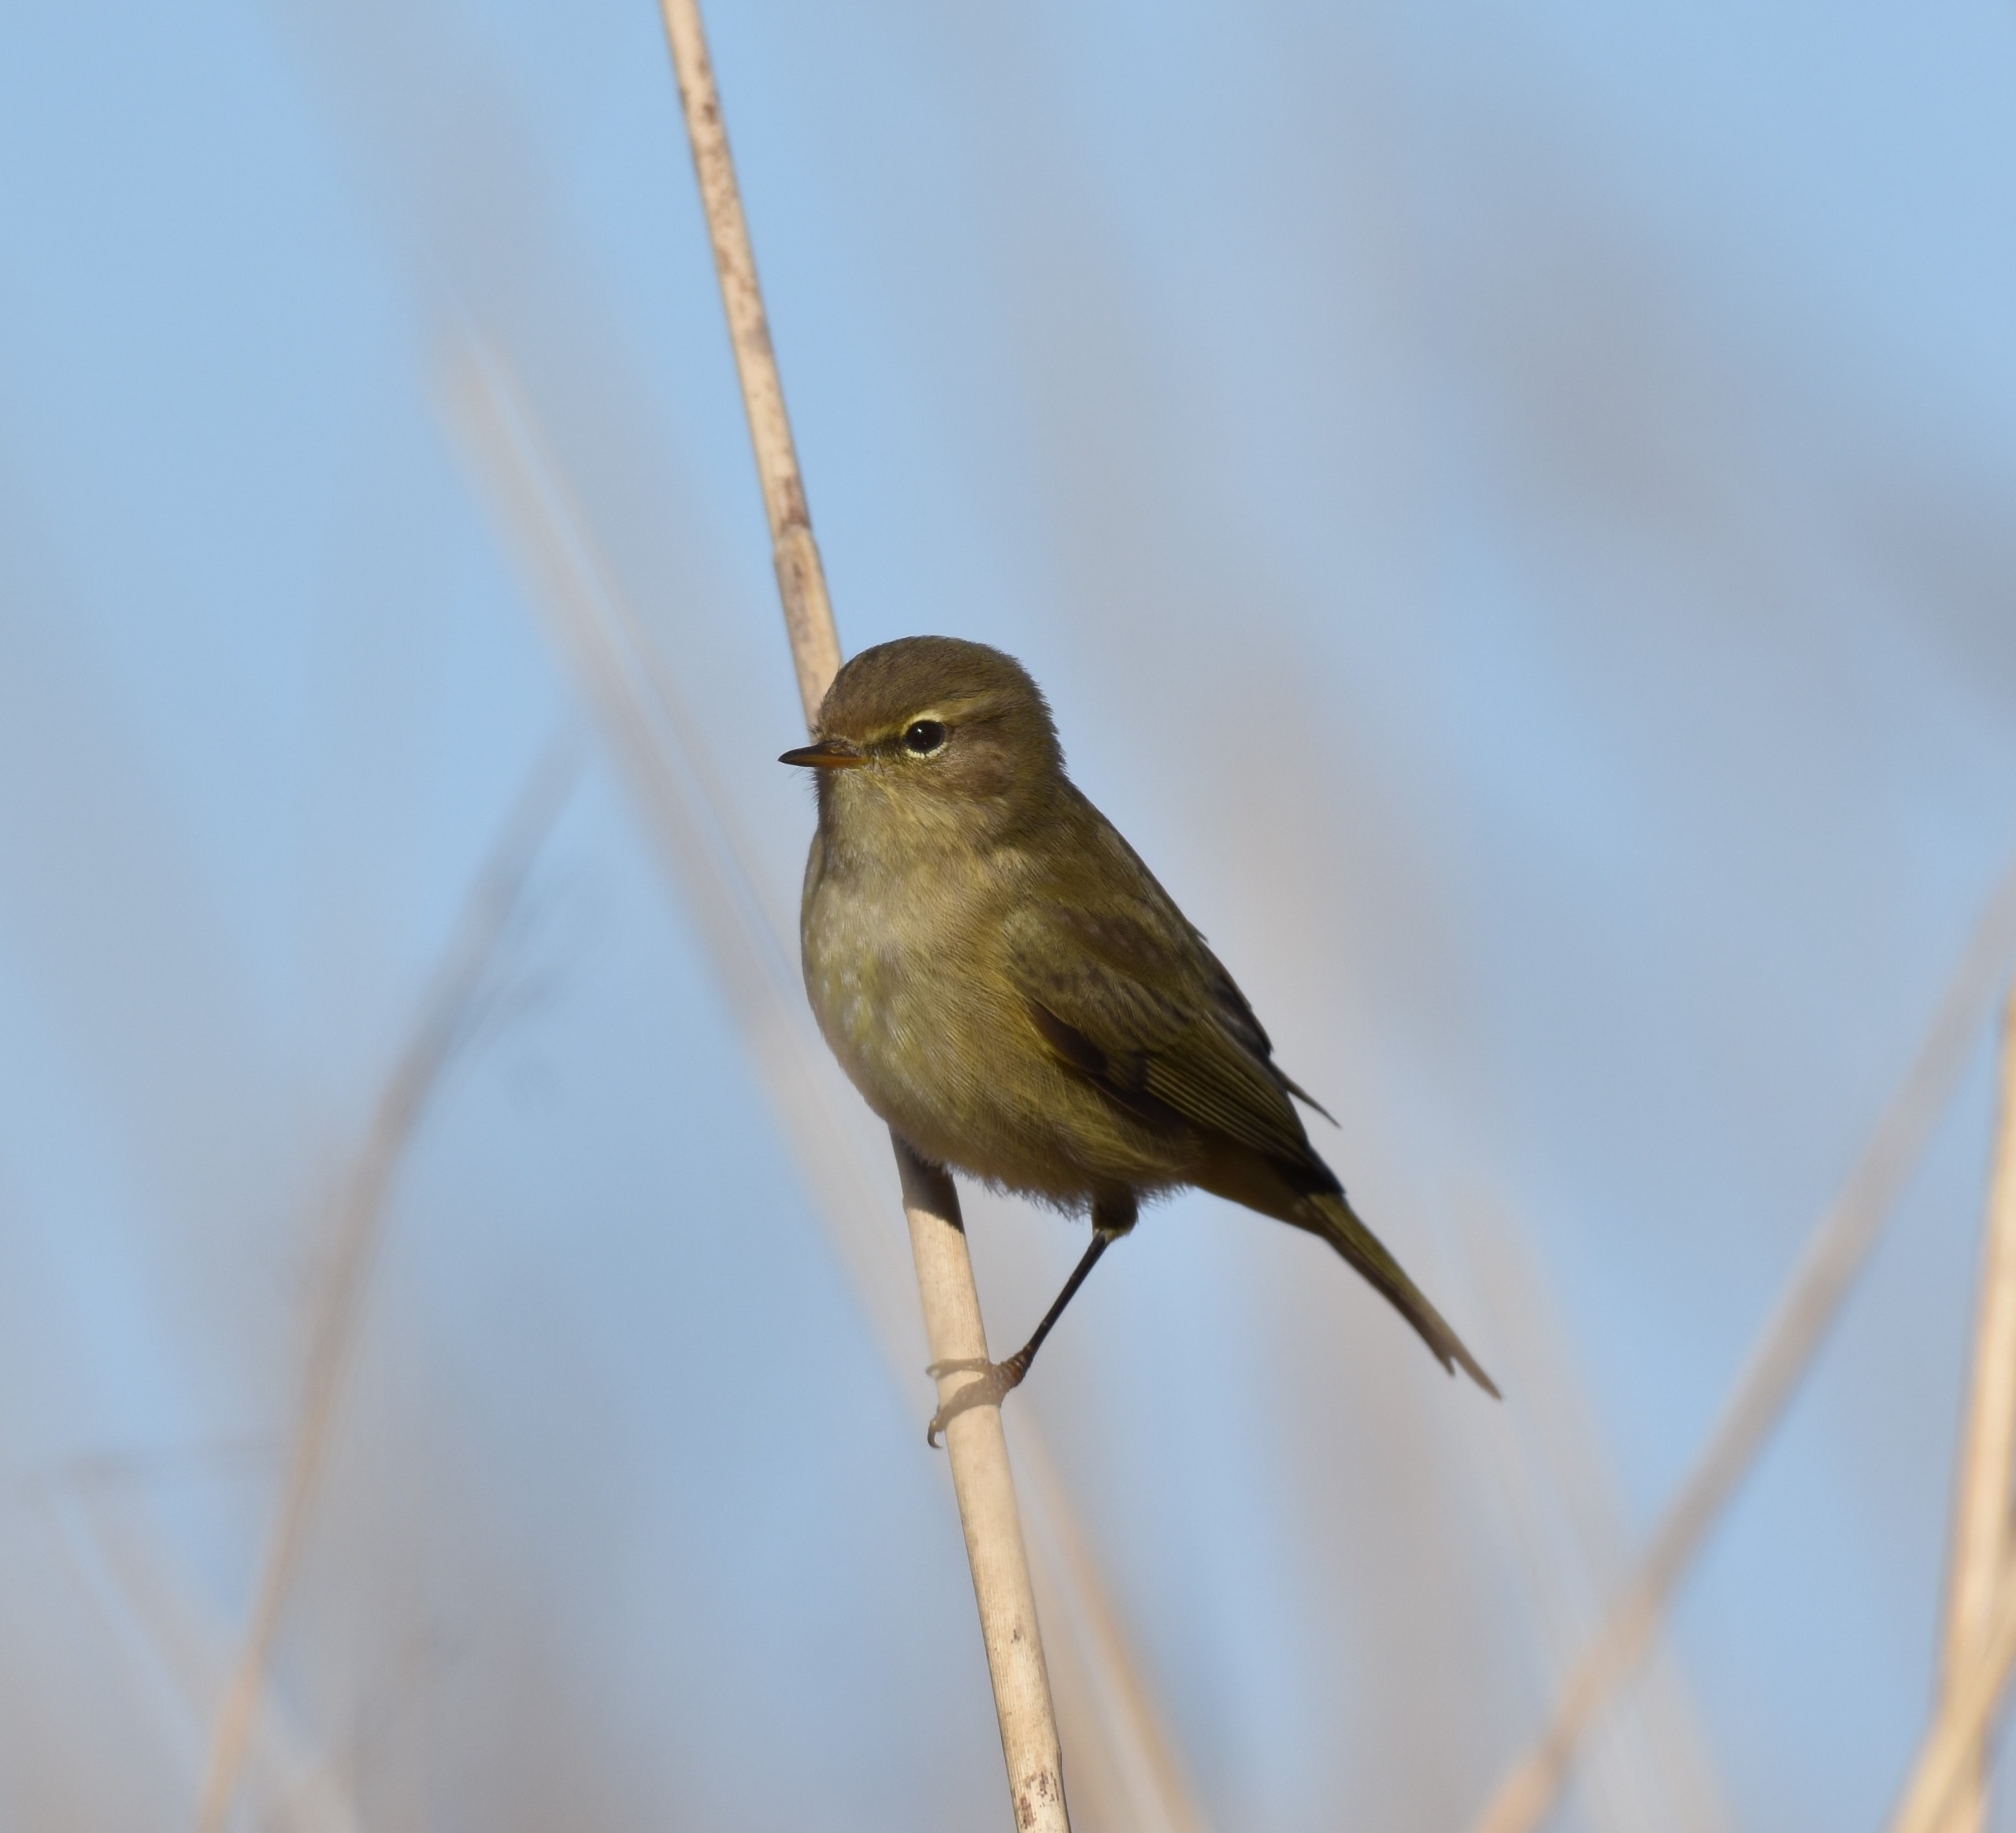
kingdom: Animalia
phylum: Chordata
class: Aves
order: Passeriformes
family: Phylloscopidae
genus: Phylloscopus
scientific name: Phylloscopus collybita
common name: Gransanger
